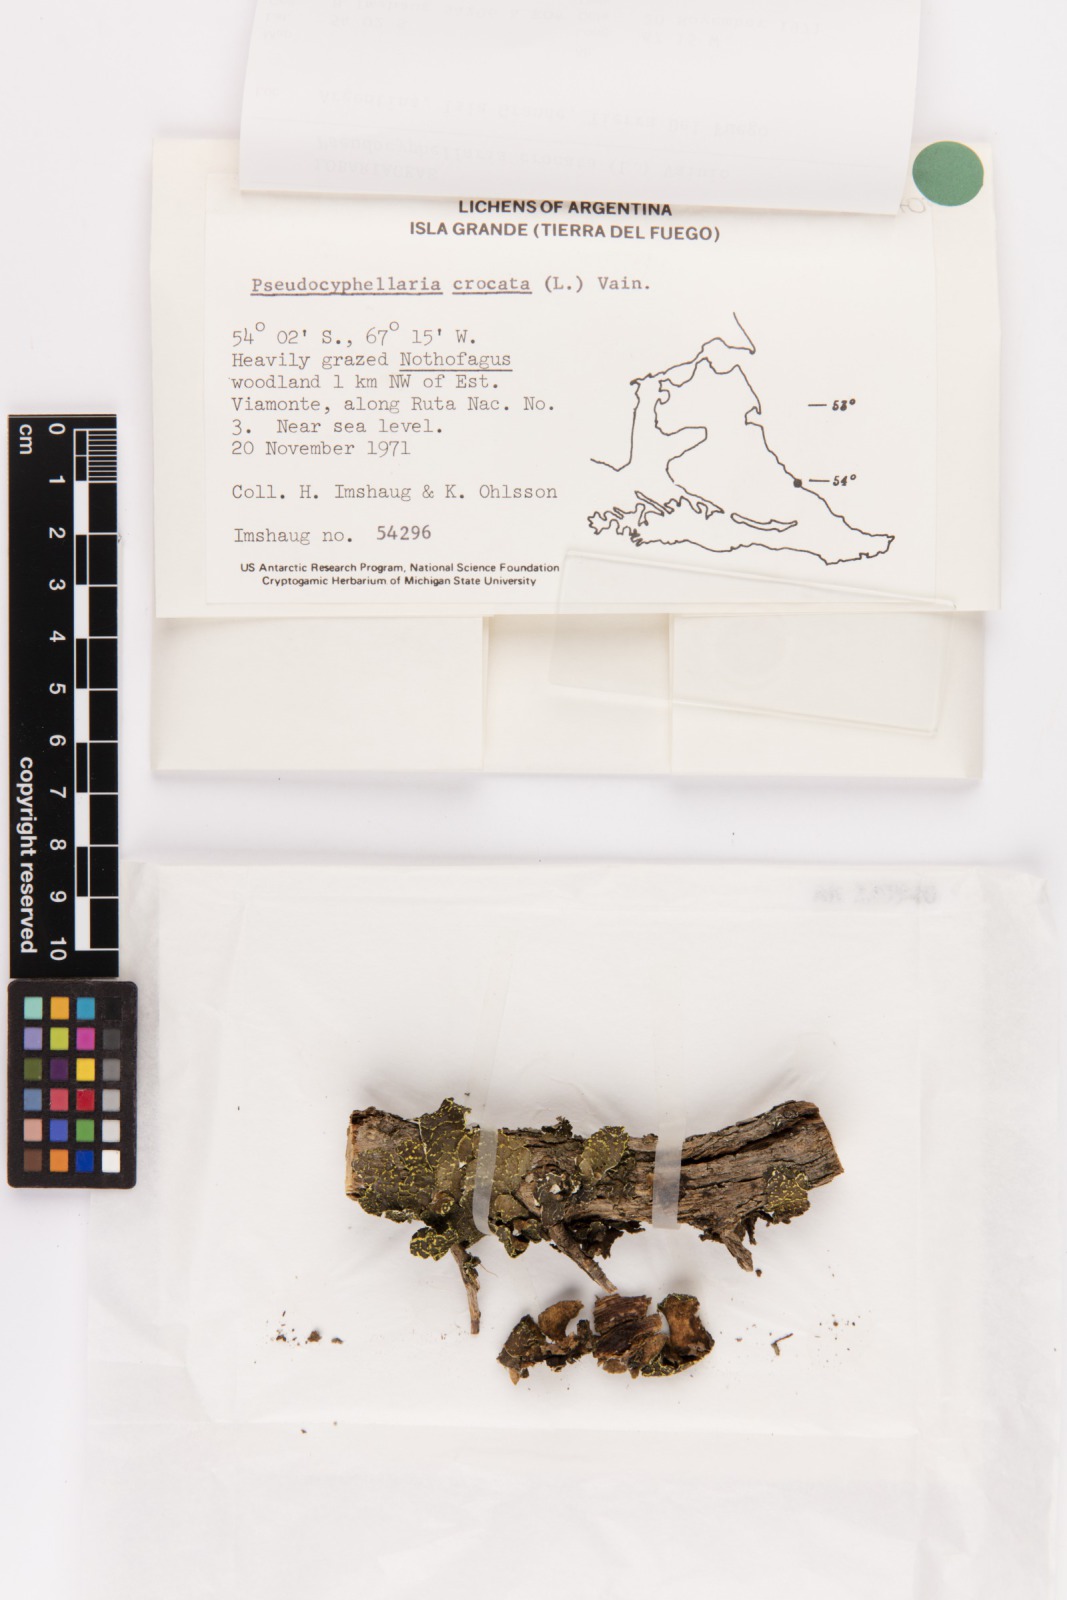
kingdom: Fungi
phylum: Ascomycota
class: Lecanoromycetes
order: Peltigerales
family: Lobariaceae
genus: Pseudocyphellaria
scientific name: Pseudocyphellaria crocata
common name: Golden specklebelly
